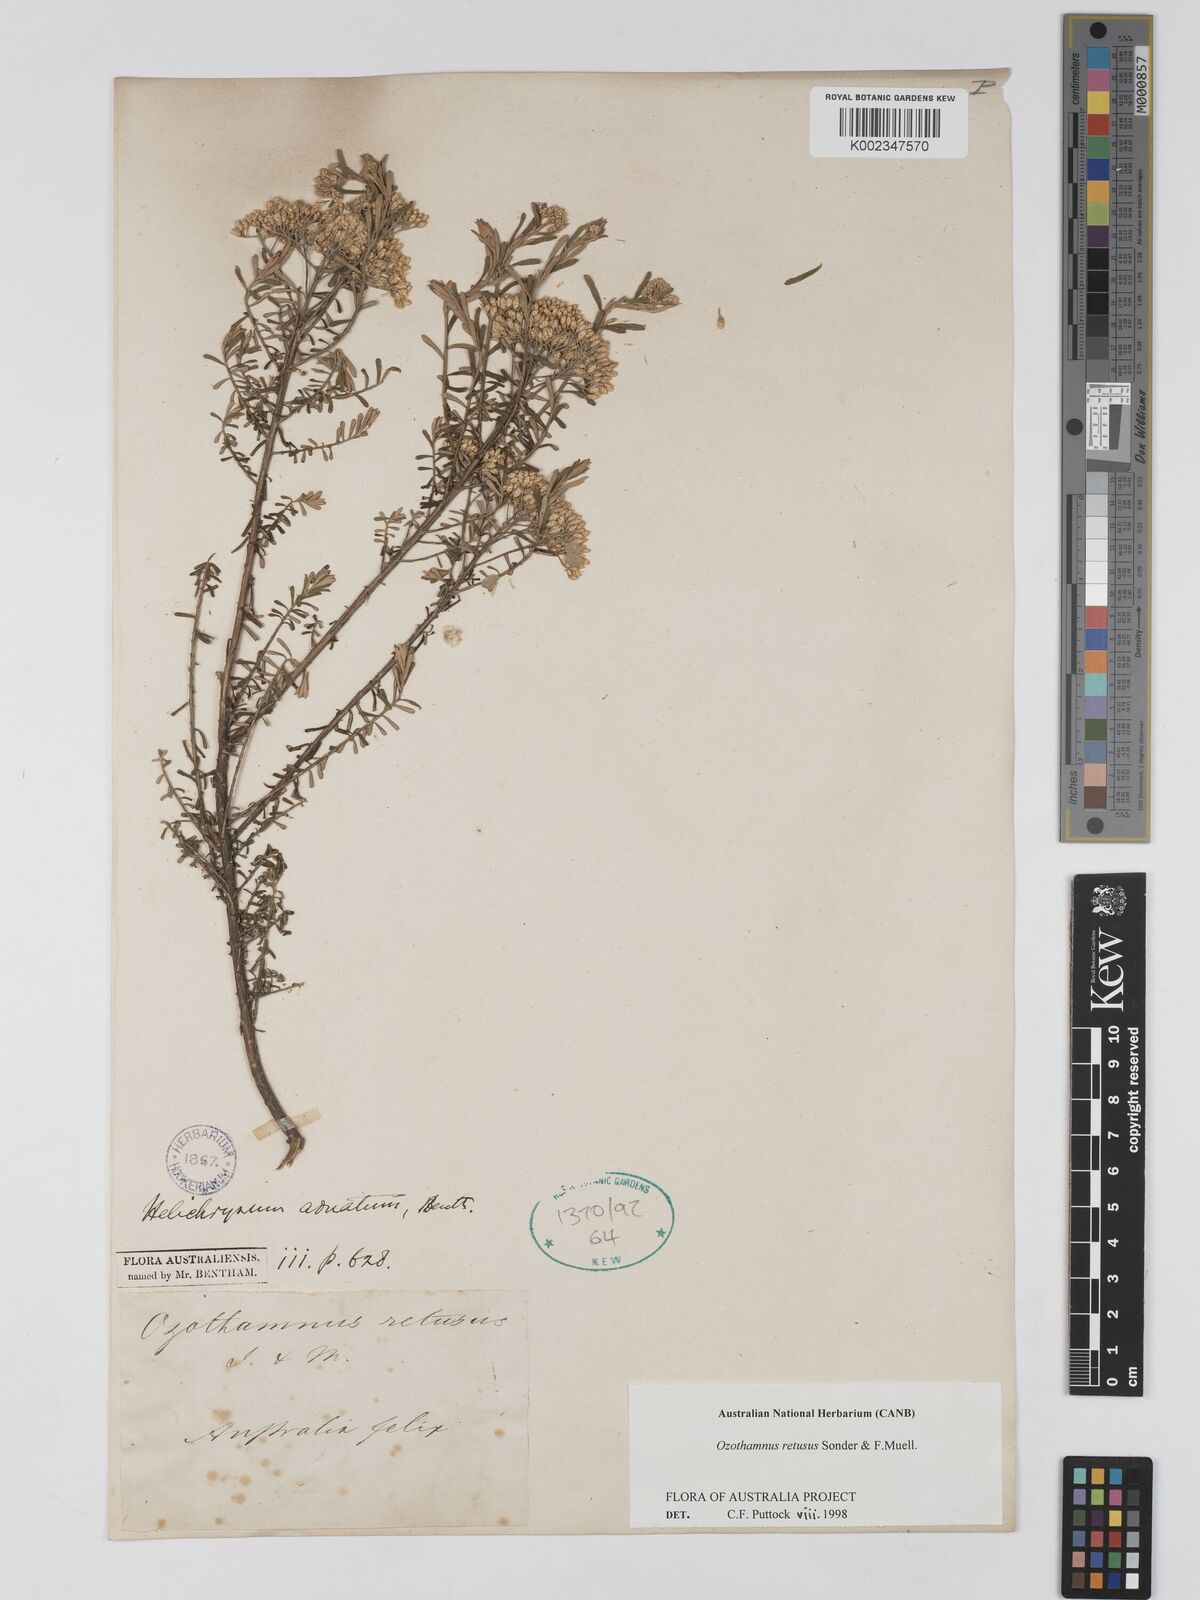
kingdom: Plantae
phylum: Tracheophyta
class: Magnoliopsida
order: Asterales
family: Asteraceae
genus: Ozothamnus
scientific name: Ozothamnus adnatus
